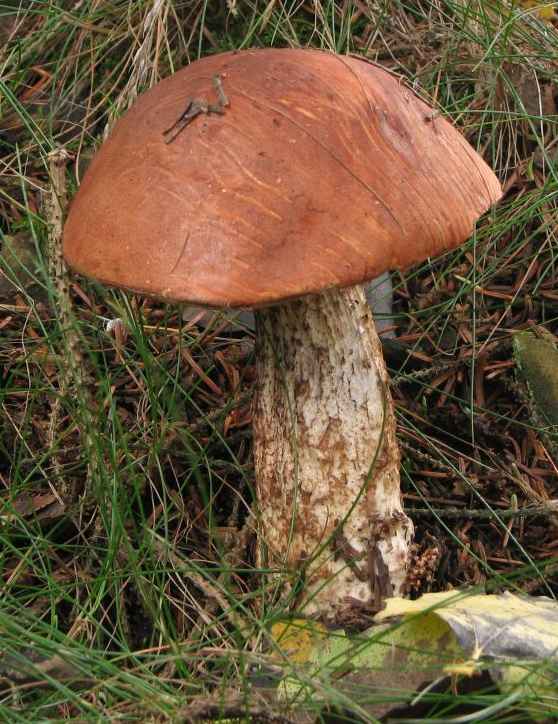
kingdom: Fungi
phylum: Basidiomycota
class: Agaricomycetes
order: Boletales
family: Boletaceae
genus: Leccinum
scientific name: Leccinum aurantiacum
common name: rustrød skælrørhat
